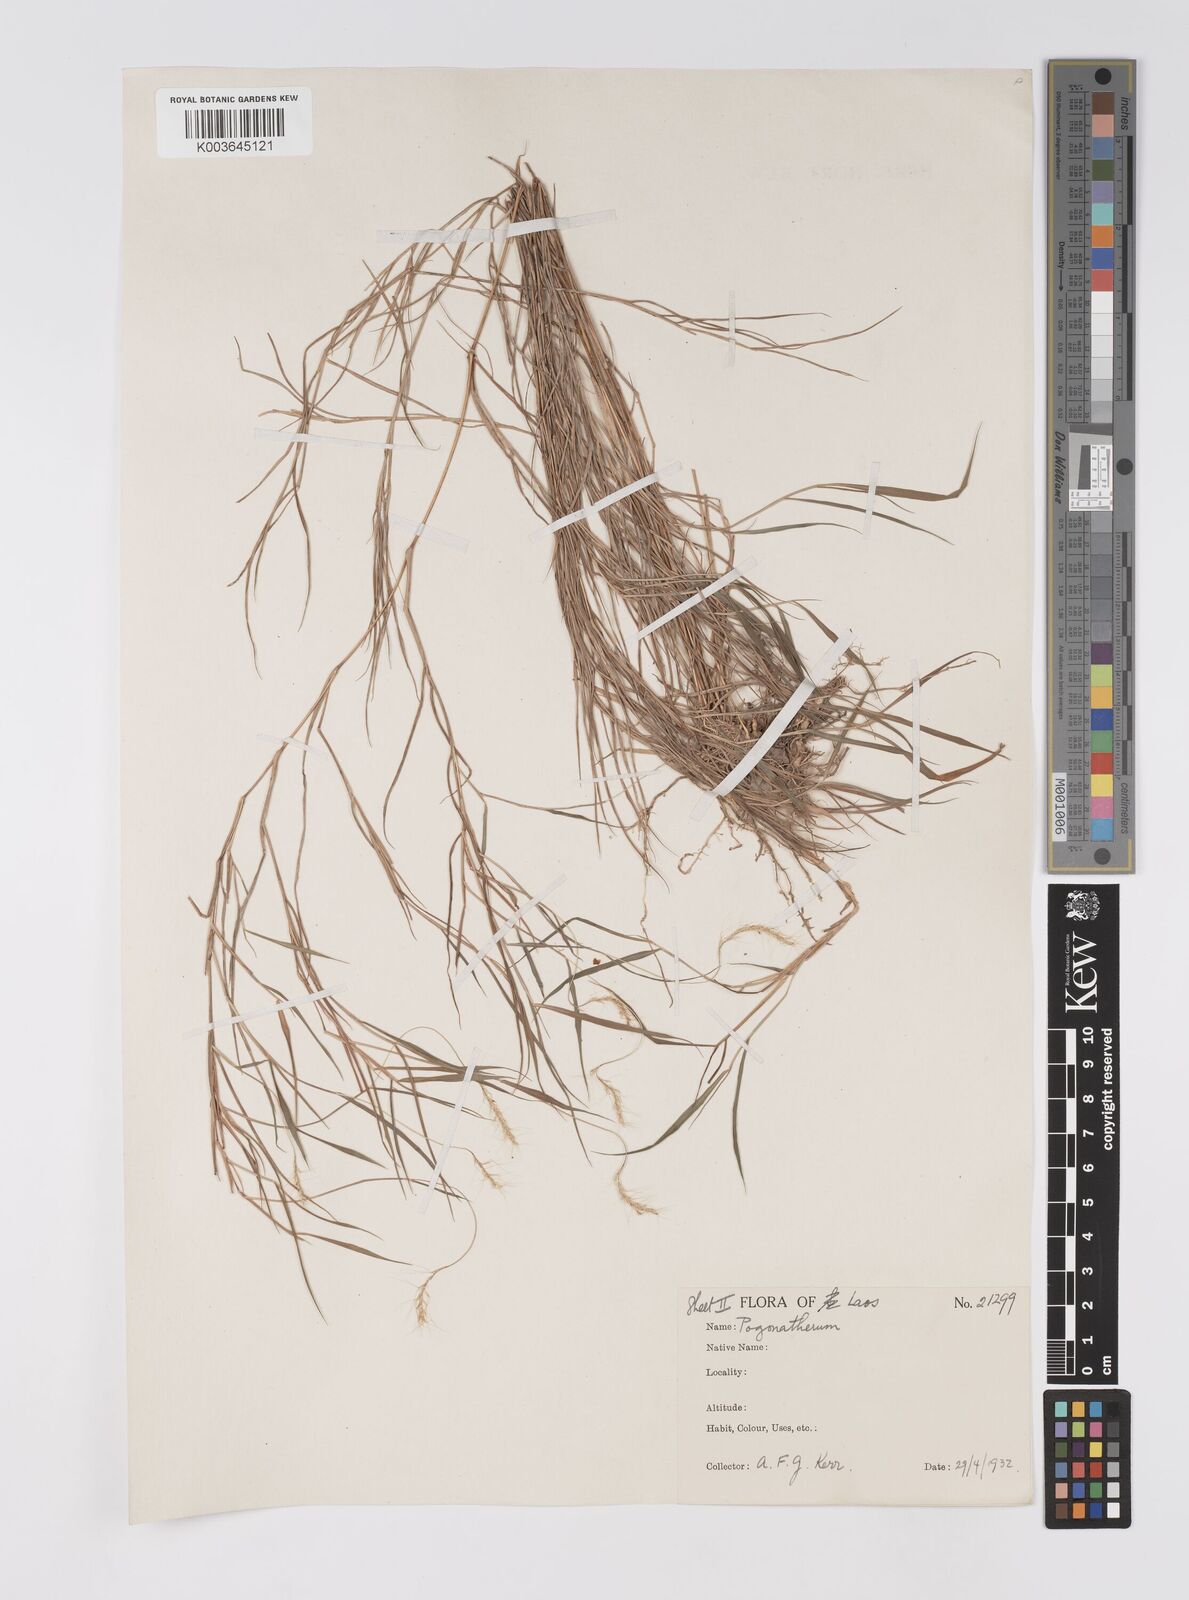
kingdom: Plantae
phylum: Tracheophyta
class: Liliopsida
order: Poales
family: Poaceae
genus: Pogonatherum
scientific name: Pogonatherum paniceum
